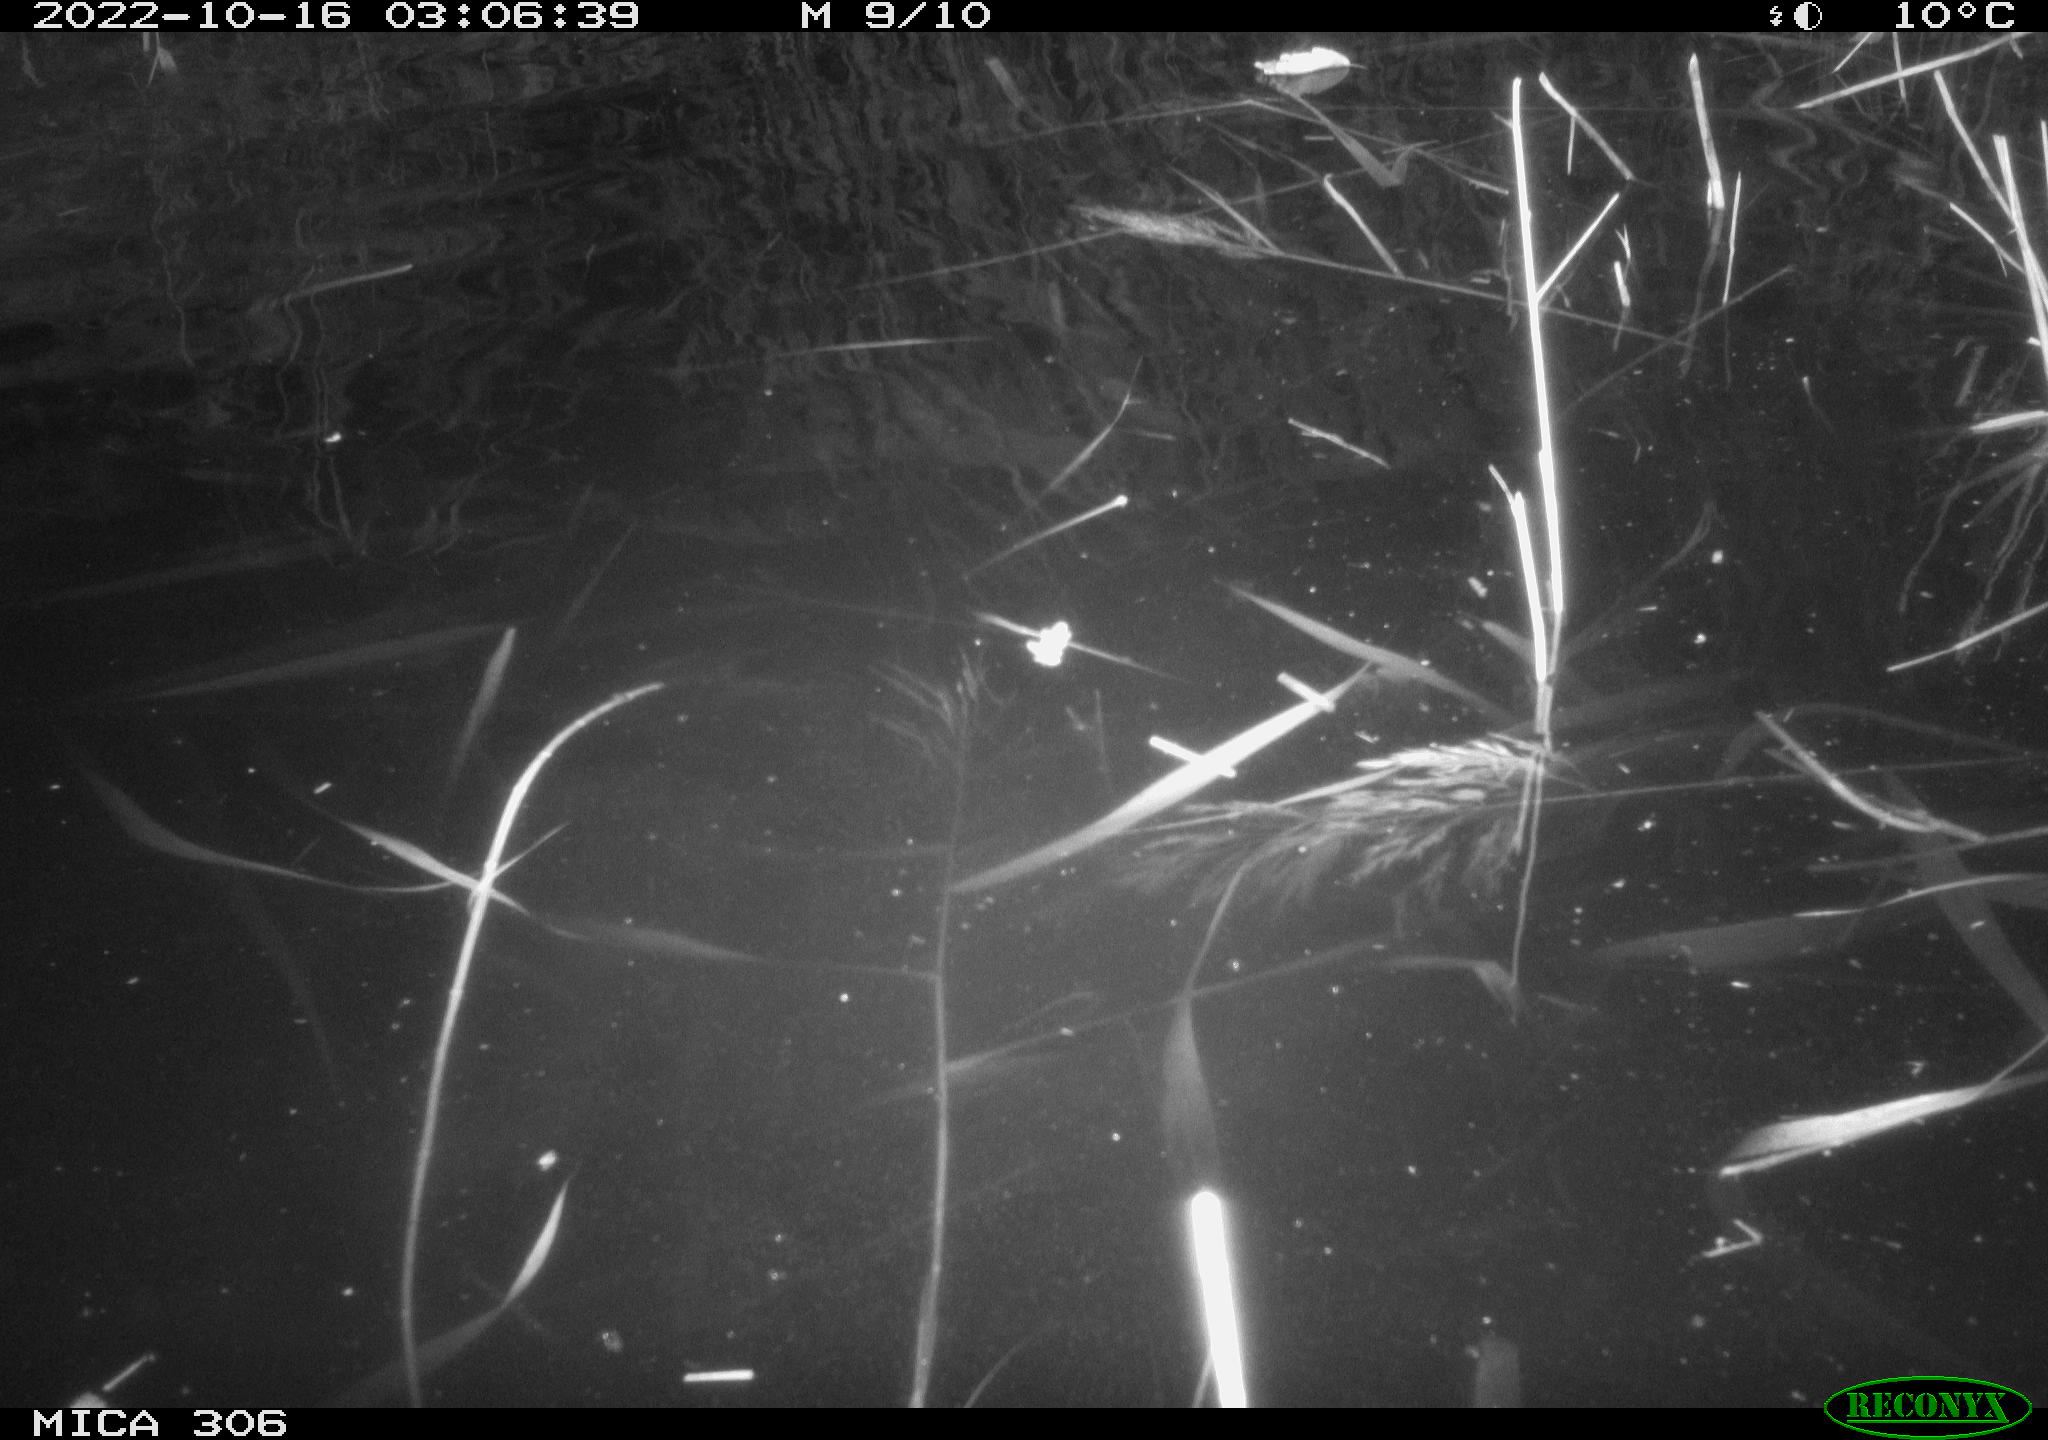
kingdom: Animalia
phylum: Chordata
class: Mammalia
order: Rodentia
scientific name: Rodentia
